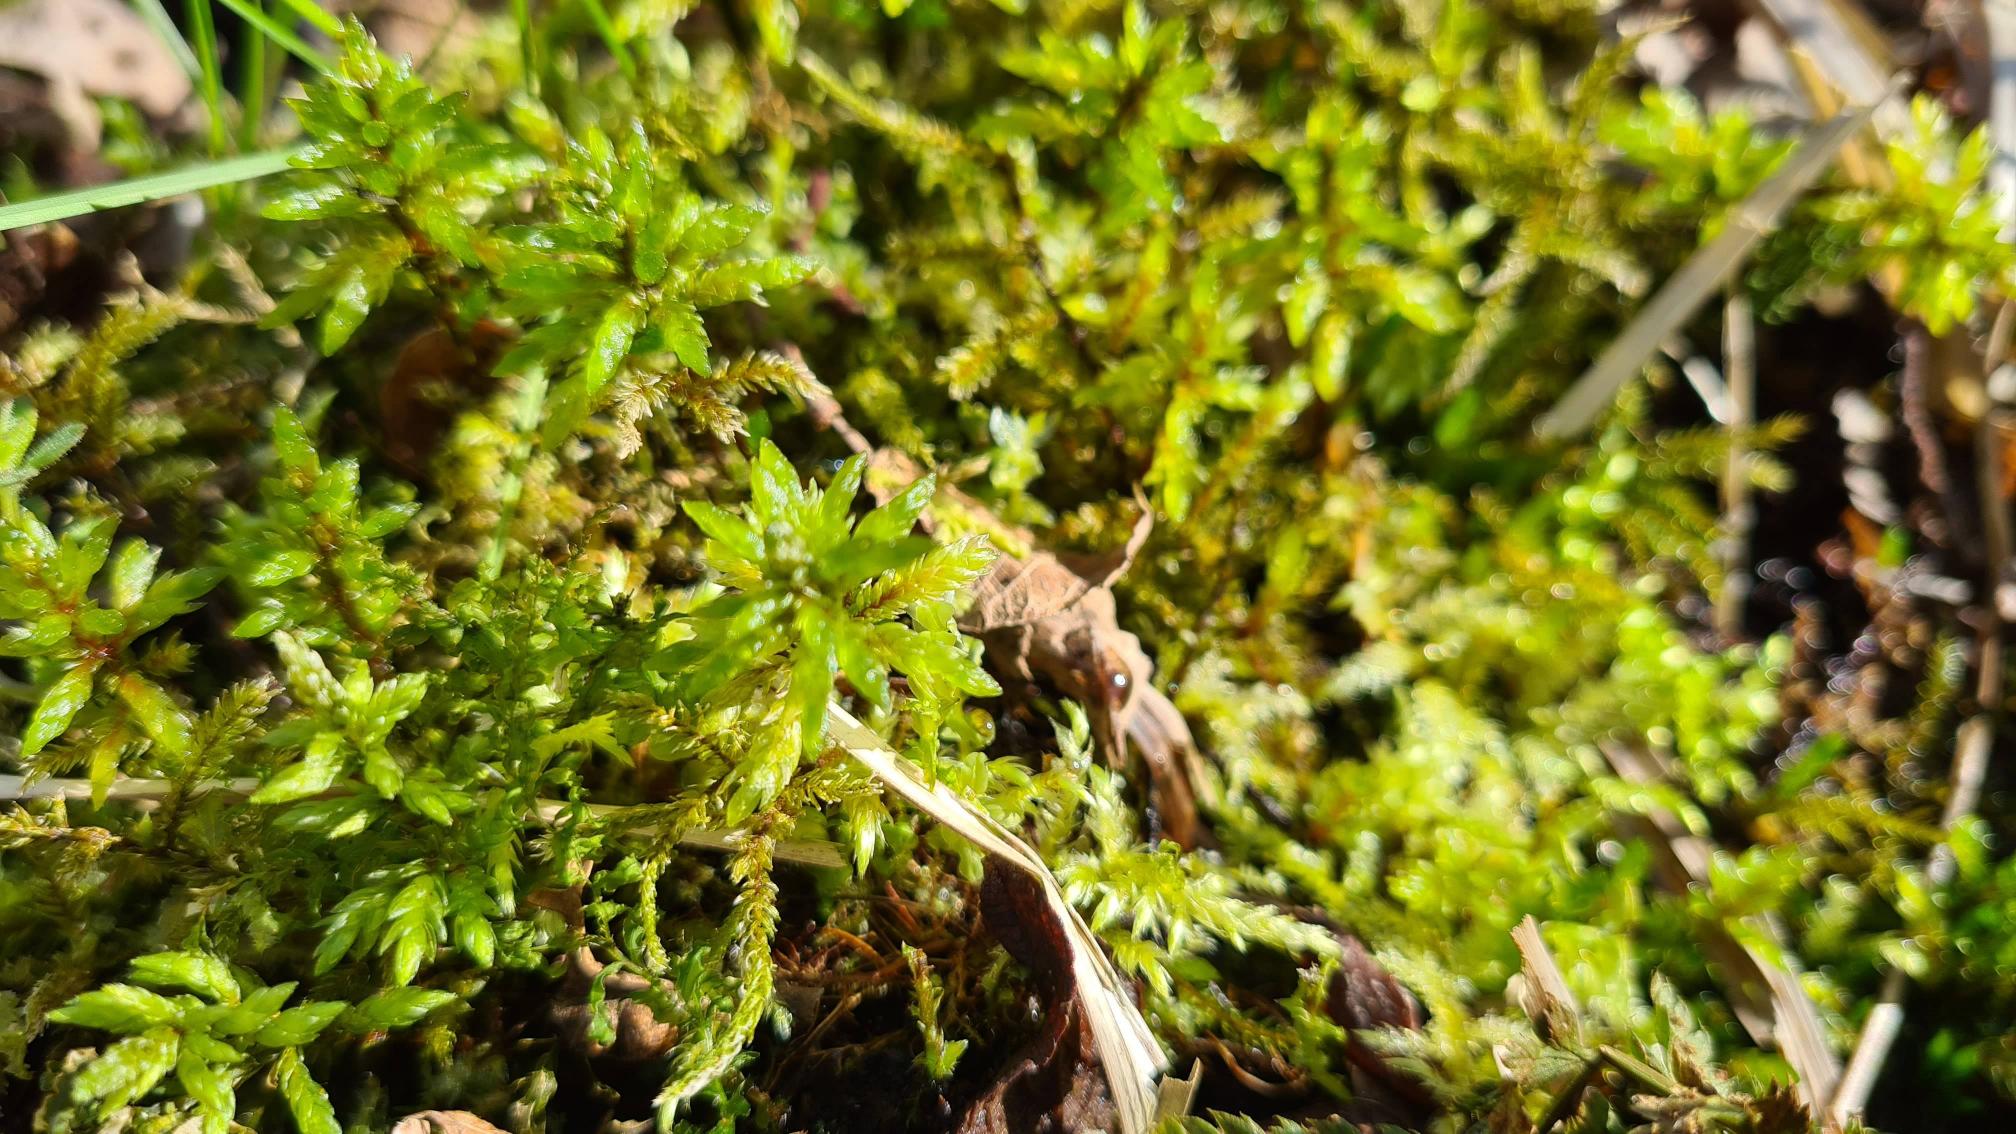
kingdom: Plantae
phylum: Bryophyta
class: Bryopsida
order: Hypnales
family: Climaciaceae
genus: Climacium
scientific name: Climacium dendroides
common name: Stor engkost
